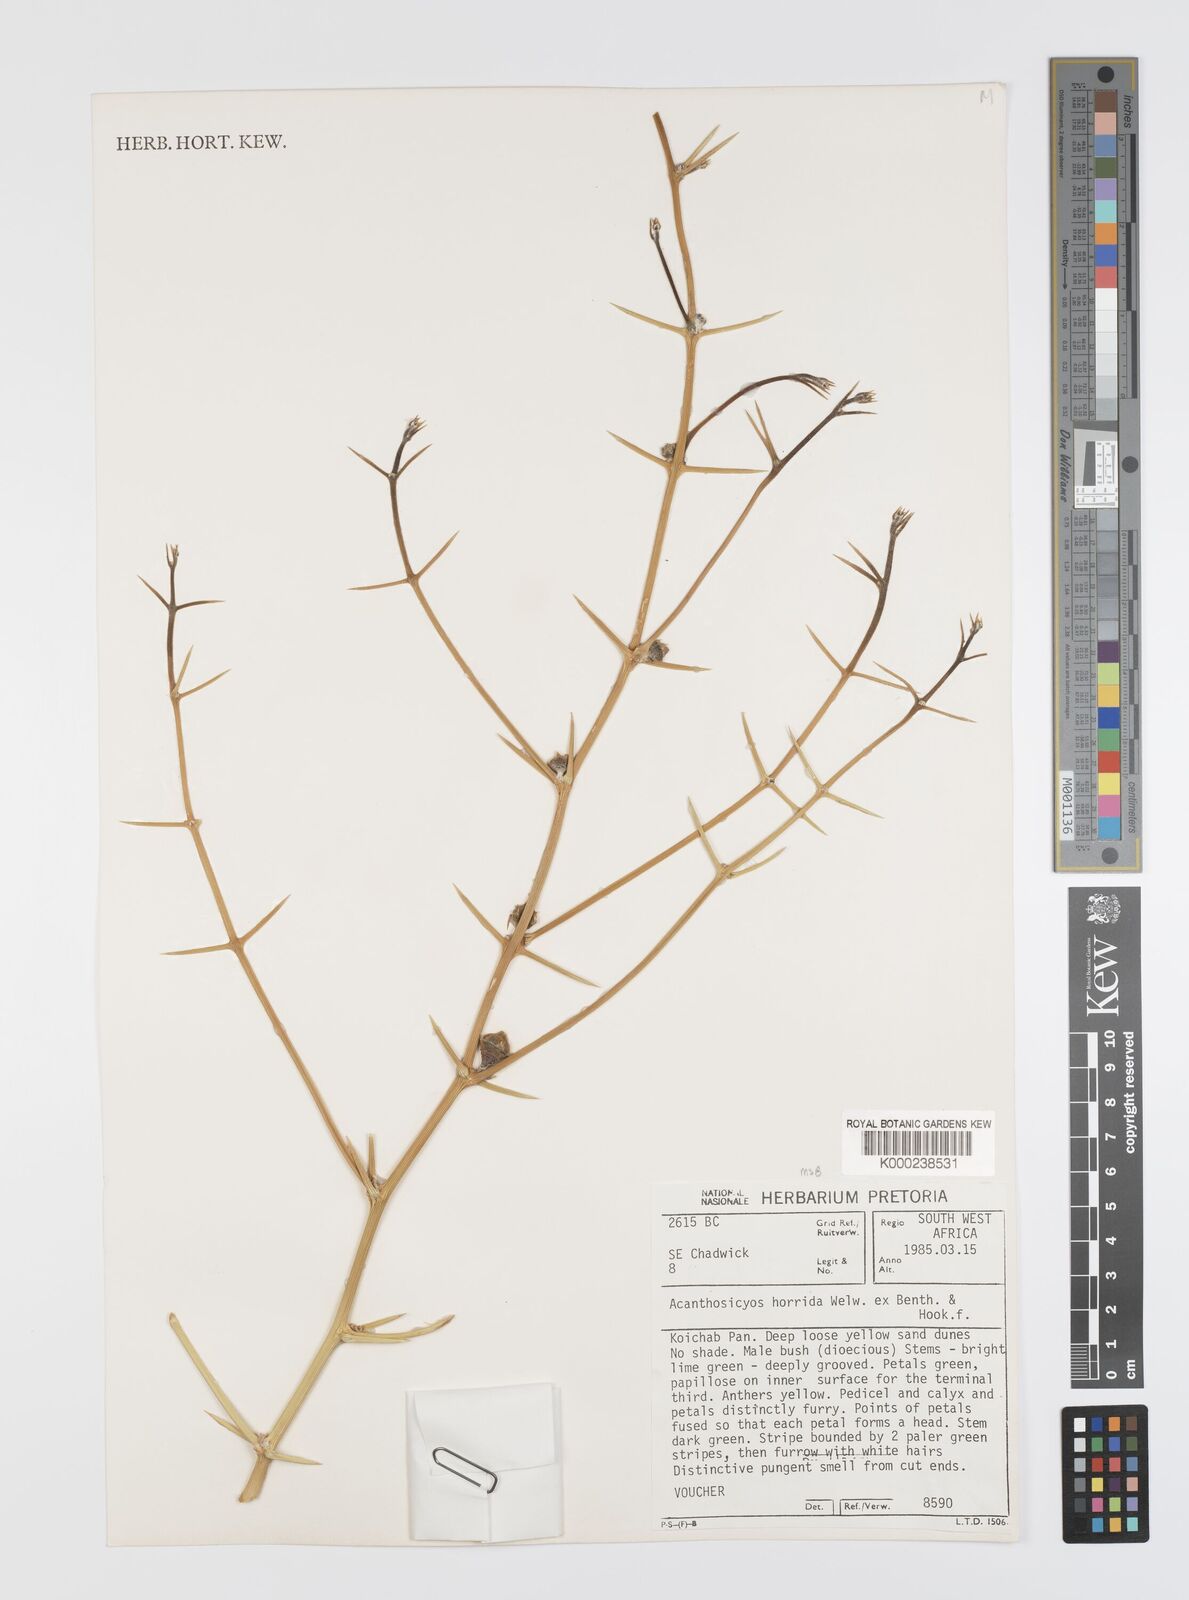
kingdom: Plantae
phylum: Tracheophyta
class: Magnoliopsida
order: Cucurbitales
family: Cucurbitaceae
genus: Acanthosicyos
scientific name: Acanthosicyos horridus
